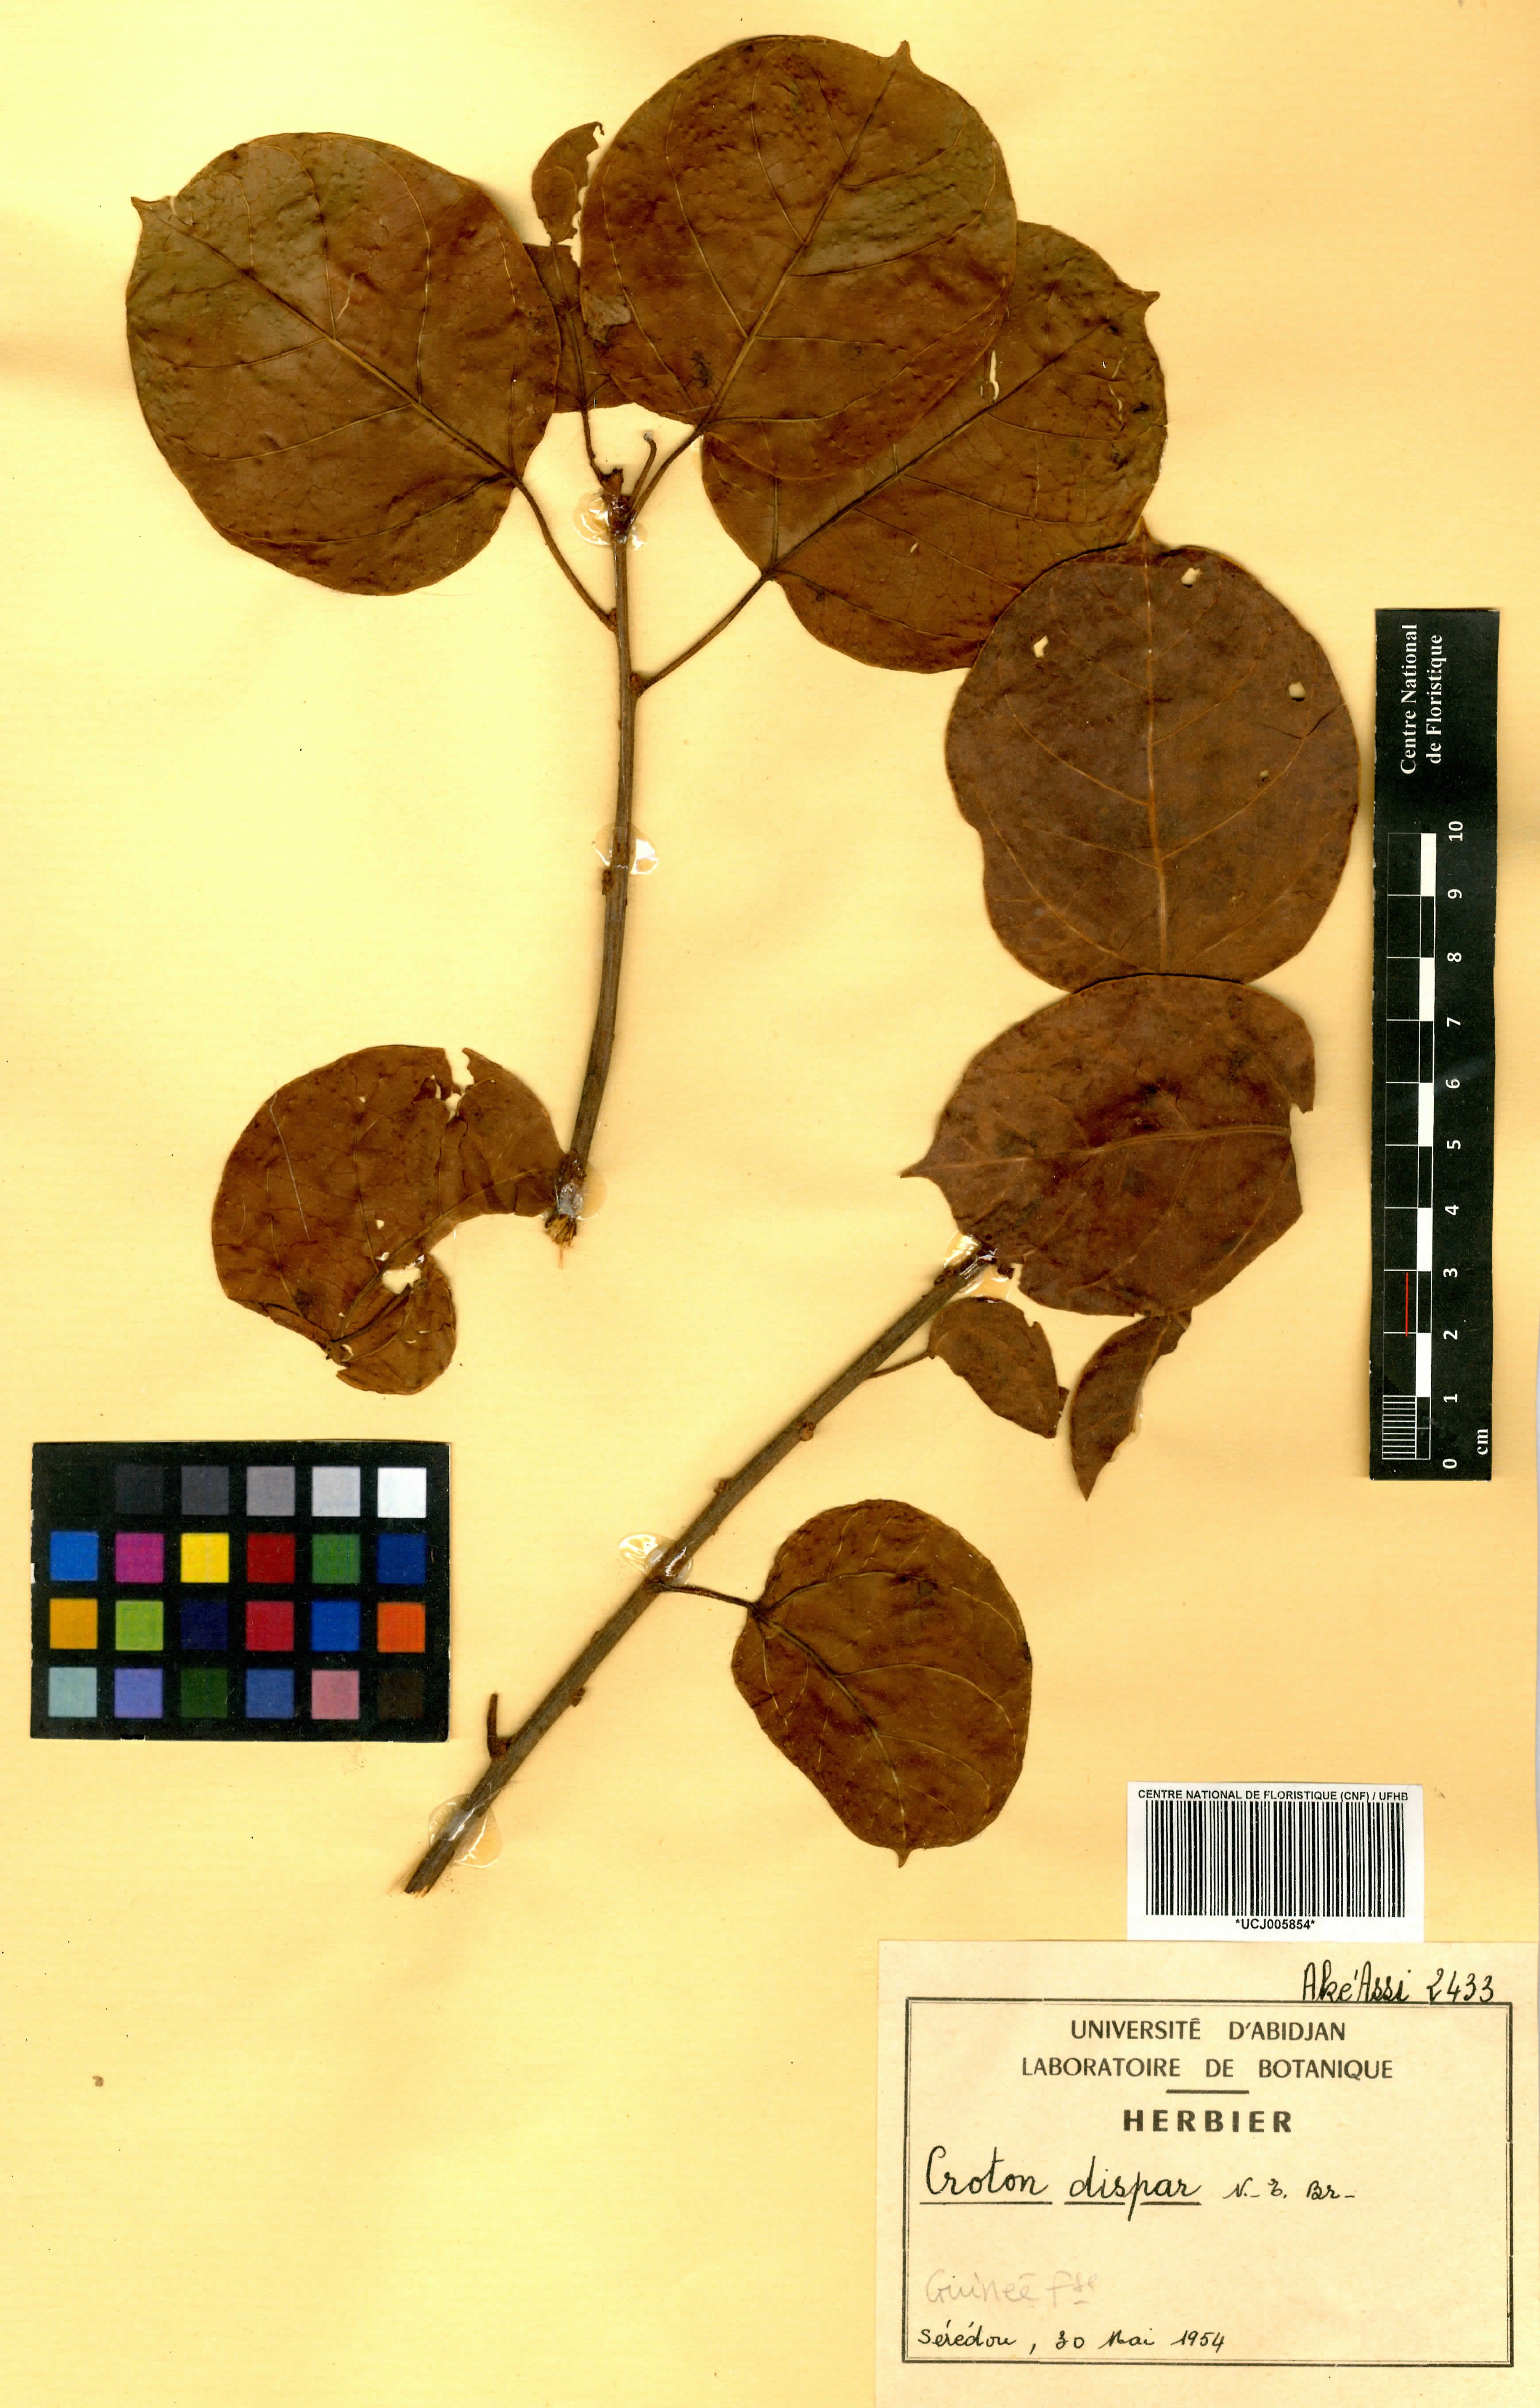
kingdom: Plantae
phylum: Tracheophyta
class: Magnoliopsida
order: Malpighiales
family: Euphorbiaceae
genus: Croton
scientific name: Croton dispar
